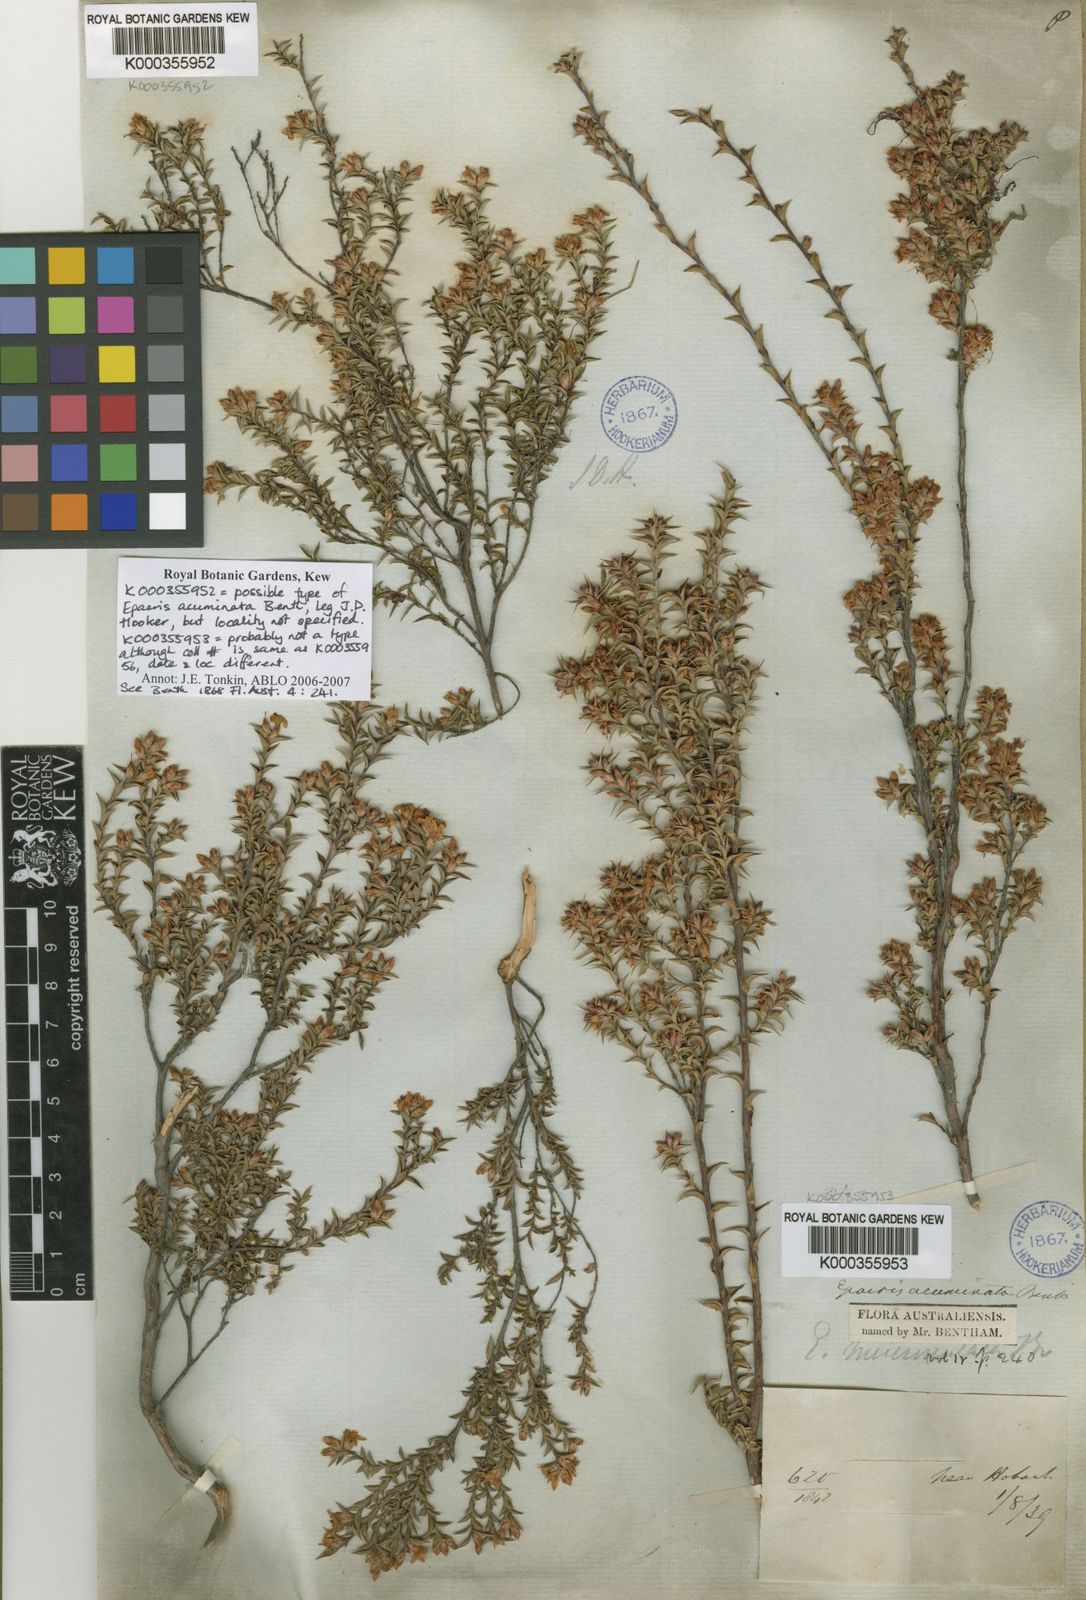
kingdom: Plantae
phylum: Tracheophyta
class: Magnoliopsida
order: Ericales
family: Ericaceae
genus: Epacris
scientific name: Epacris acuminata
